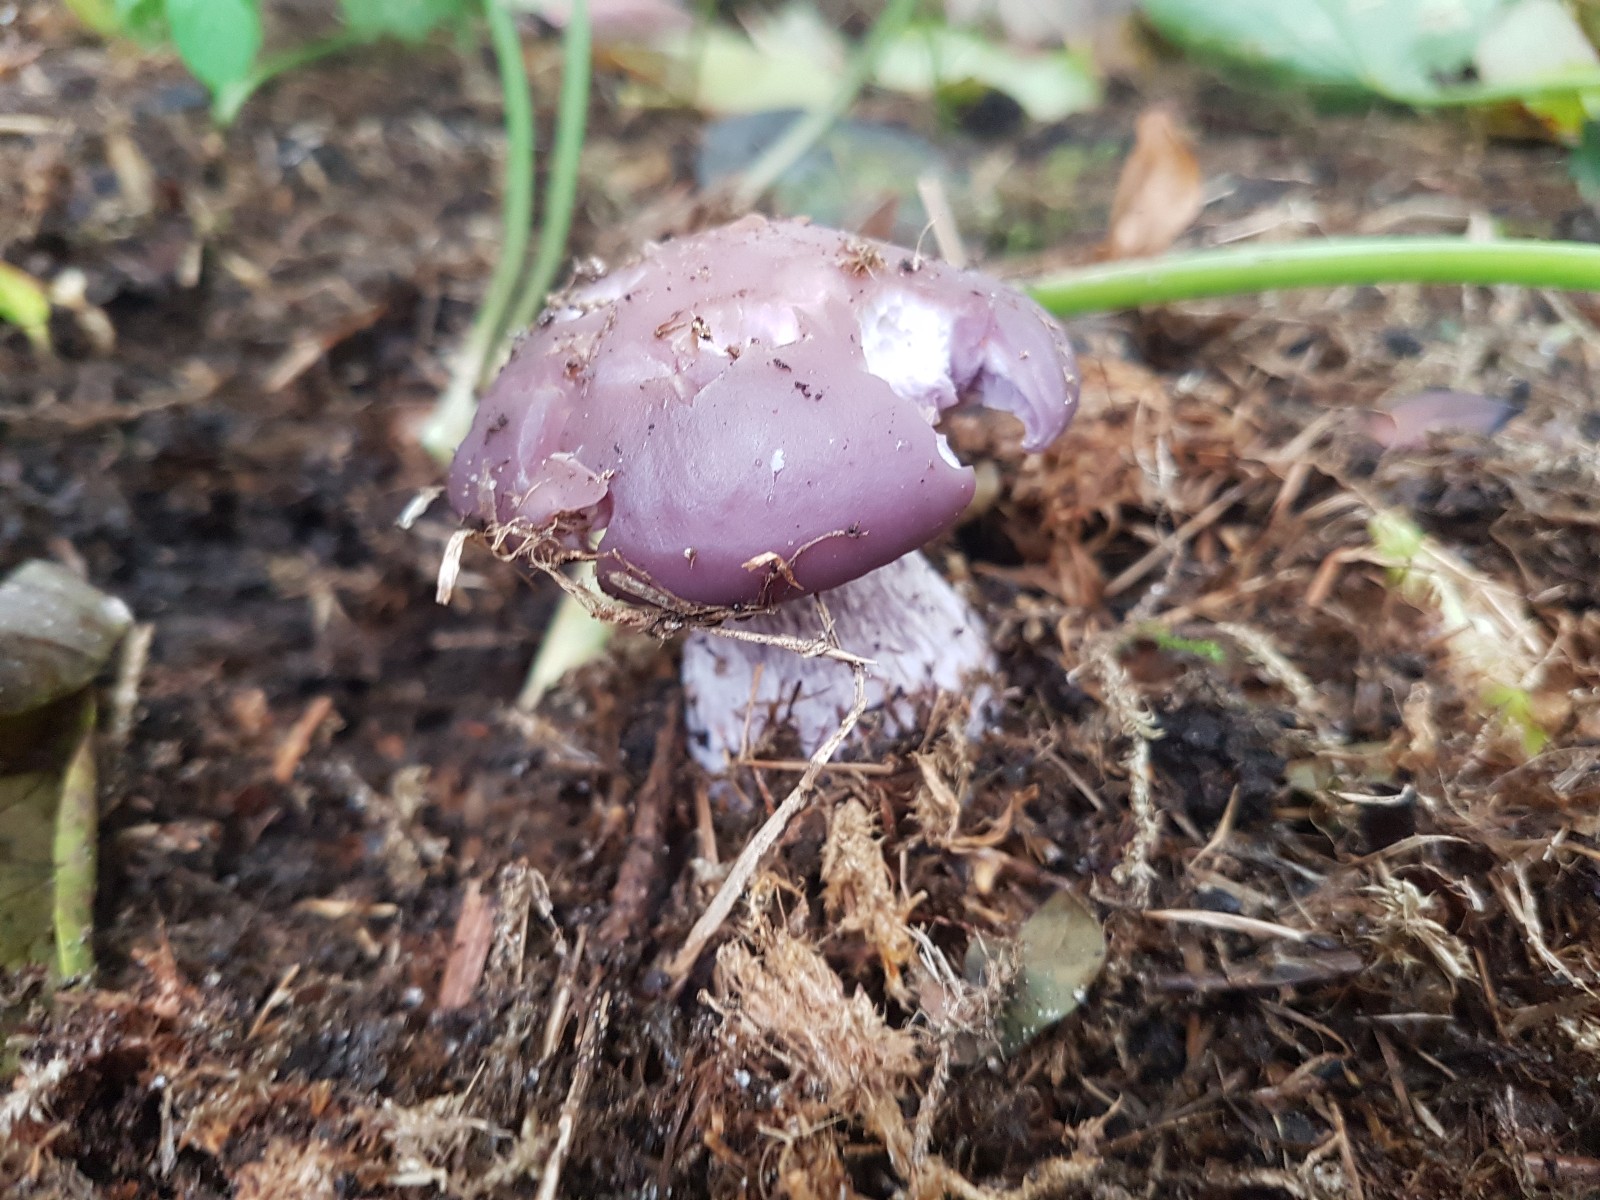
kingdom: Fungi
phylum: Basidiomycota
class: Agaricomycetes
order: Agaricales
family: Tricholomataceae
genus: Lepista
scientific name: Lepista nuda
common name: violet hekseringshat
